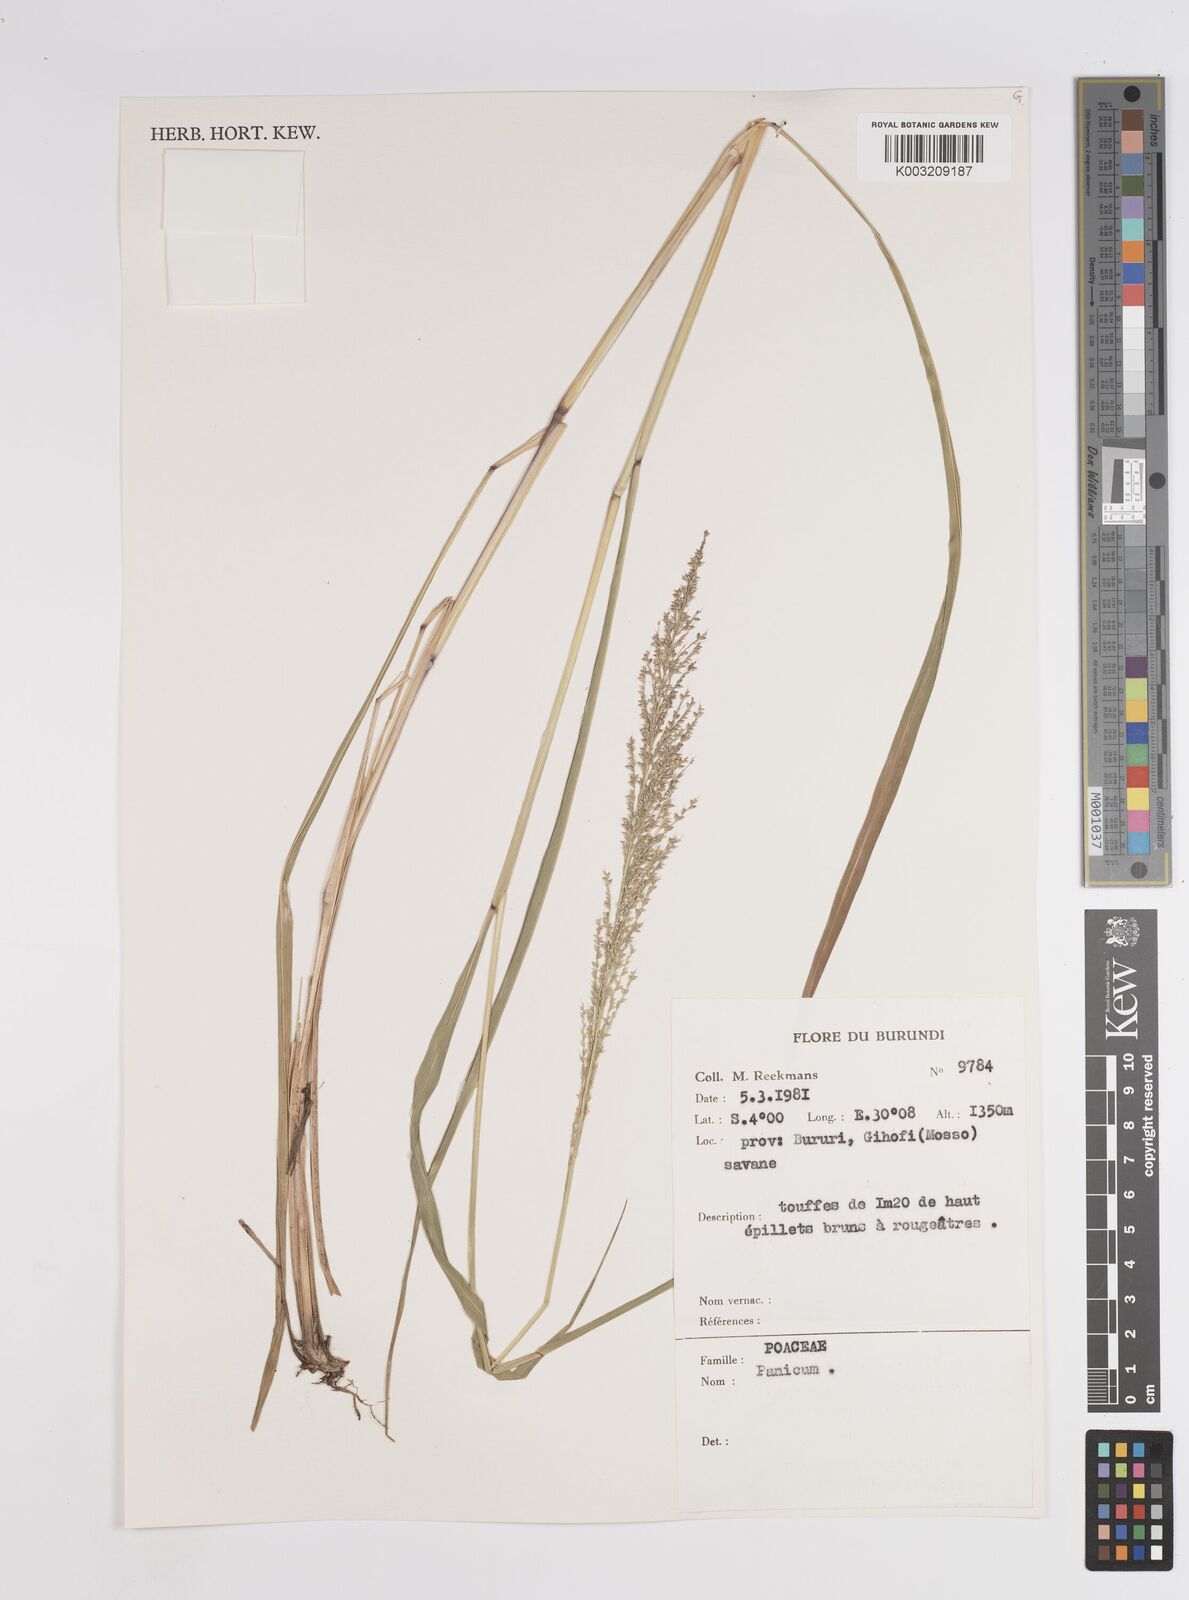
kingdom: Plantae
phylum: Tracheophyta
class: Liliopsida
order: Poales
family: Poaceae
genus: Panicum
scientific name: Panicum
